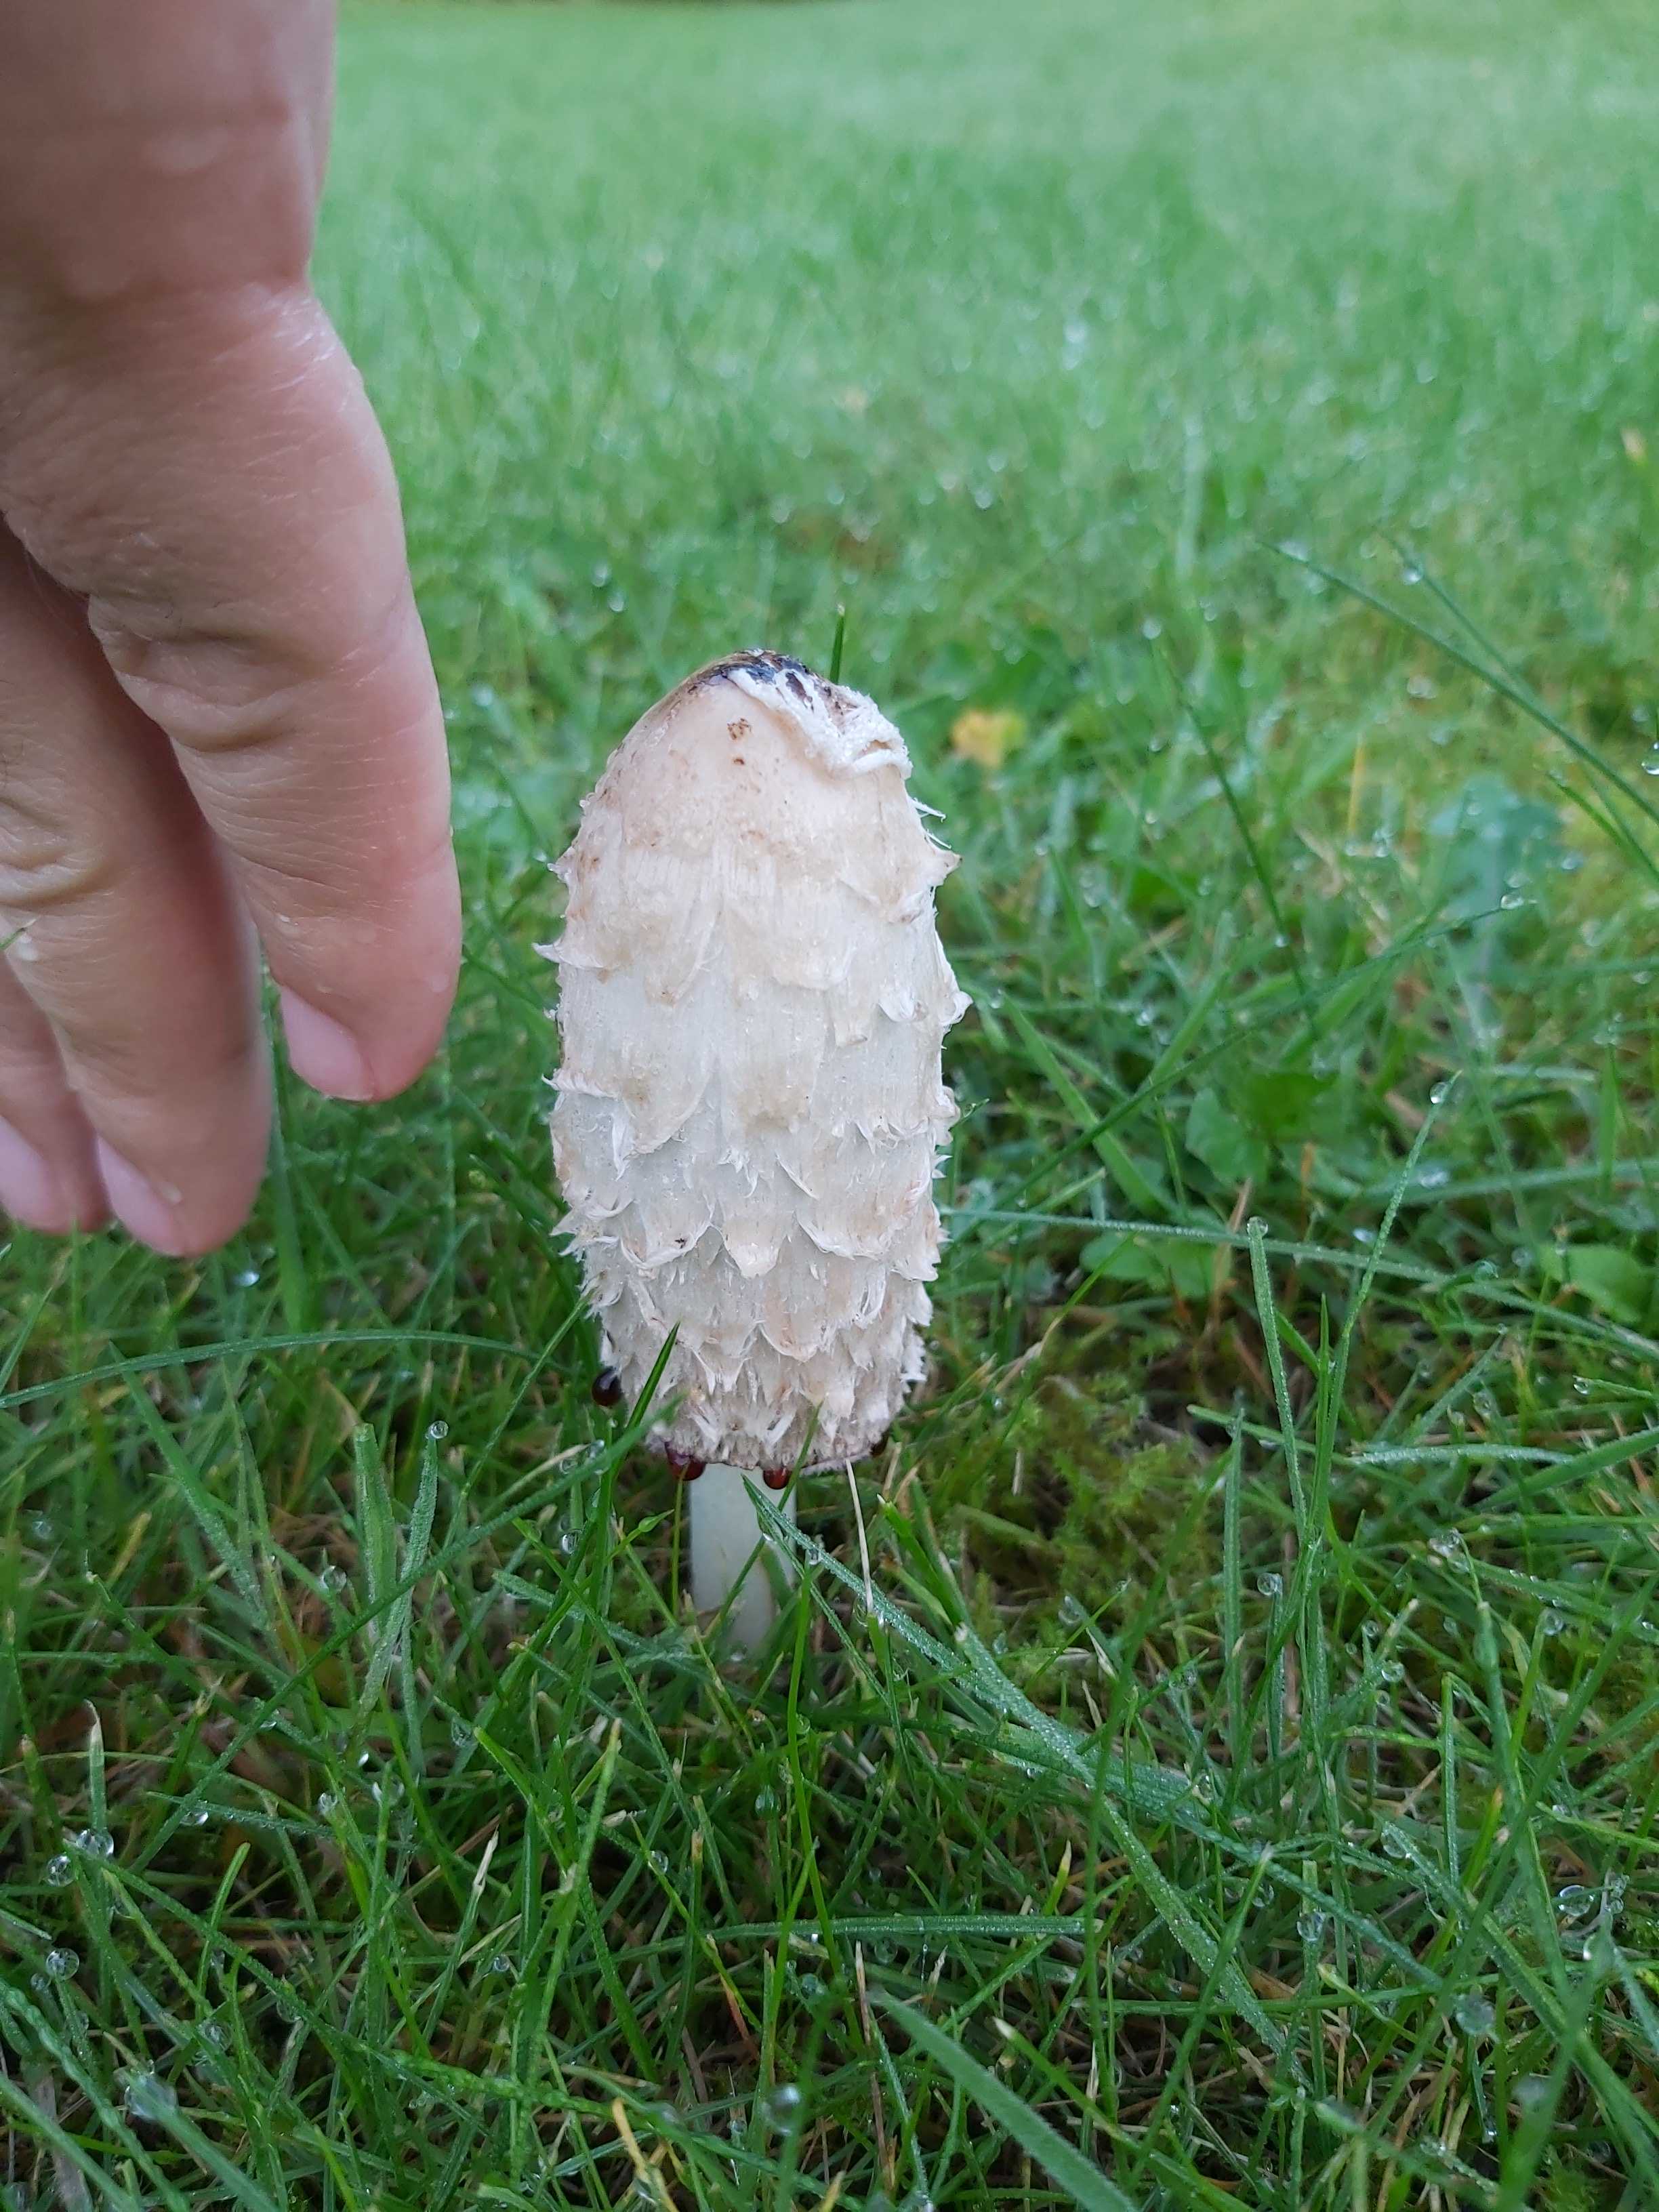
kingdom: Fungi
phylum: Basidiomycota
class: Agaricomycetes
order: Agaricales
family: Agaricaceae
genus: Coprinus
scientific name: Coprinus comatus
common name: stor parykhat
